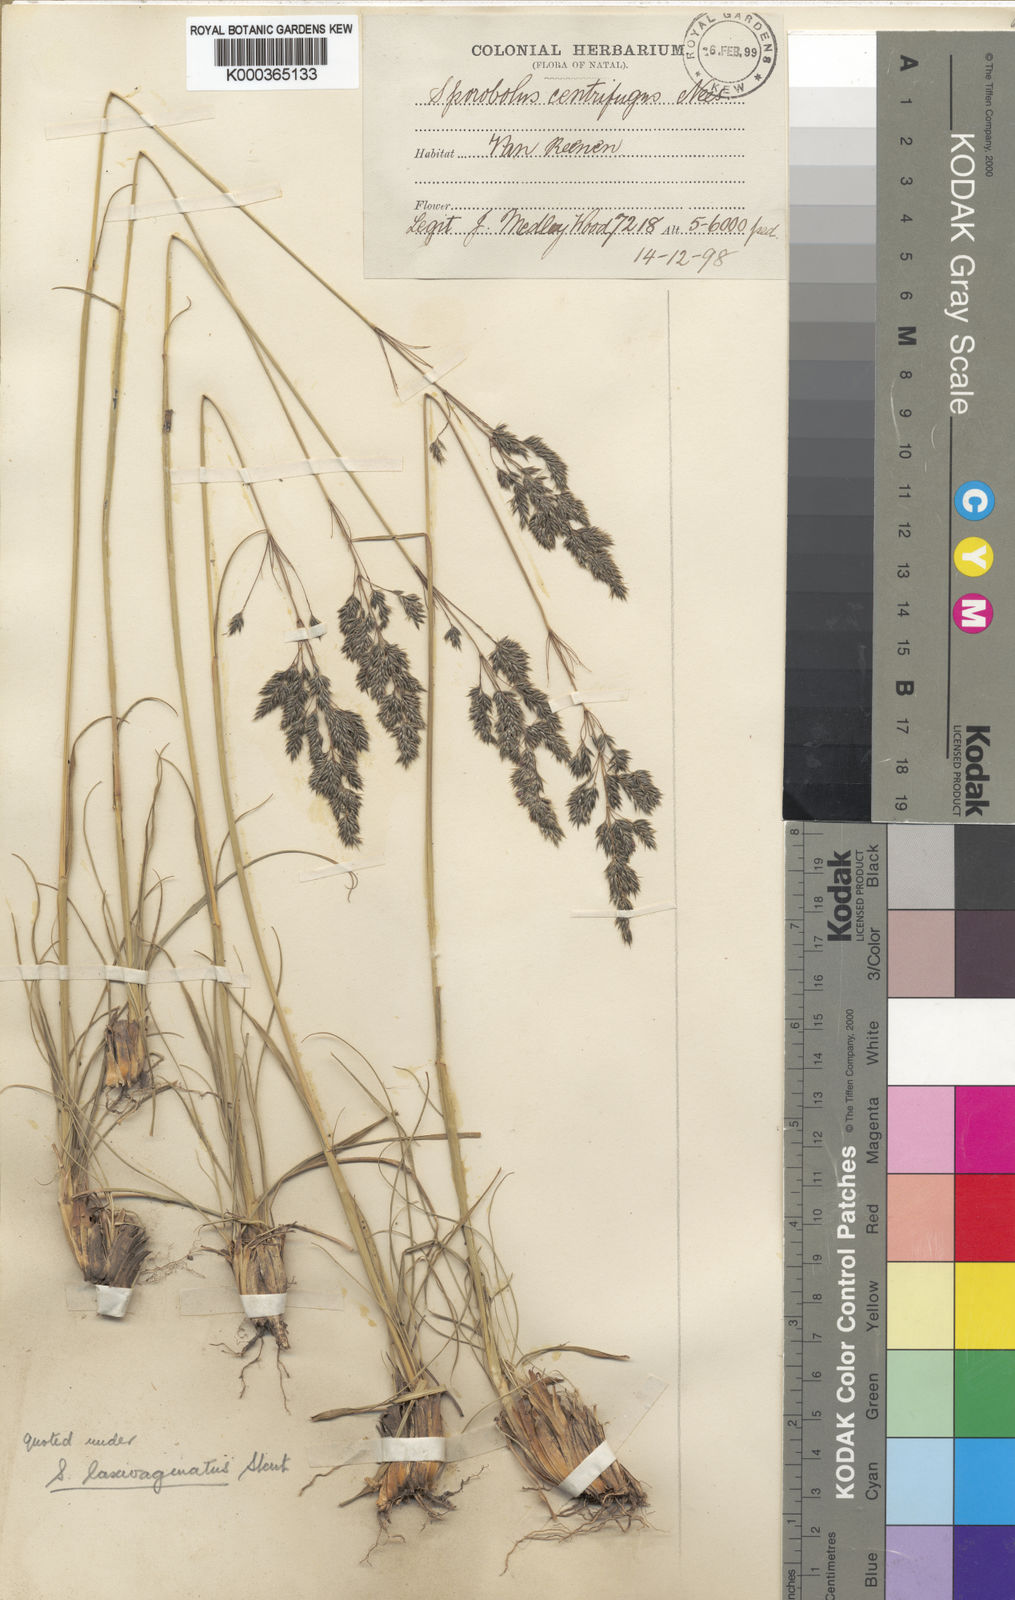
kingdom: Plantae
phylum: Tracheophyta
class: Liliopsida
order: Poales
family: Poaceae
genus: Sporobolus
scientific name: Sporobolus centrifugus
